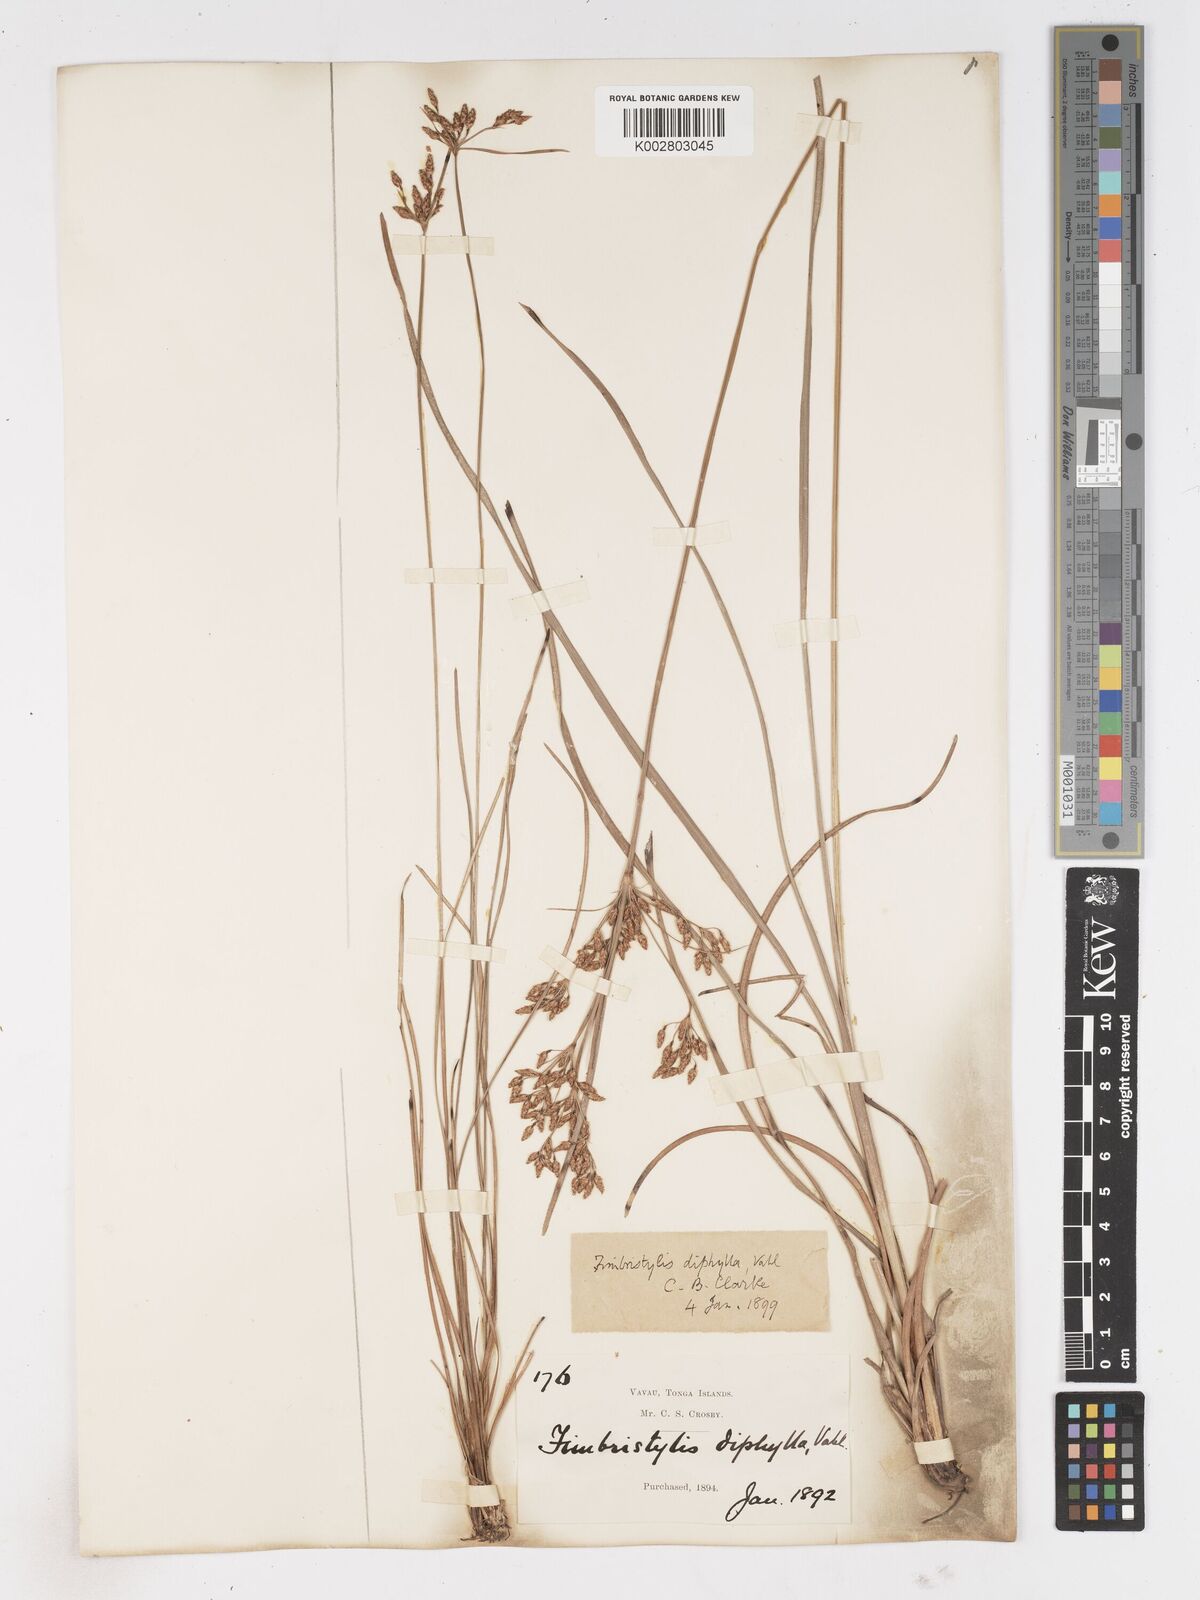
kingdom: Plantae
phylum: Tracheophyta
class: Liliopsida
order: Poales
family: Cyperaceae
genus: Fimbristylis
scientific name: Fimbristylis dichotoma
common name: Forked fimbry
